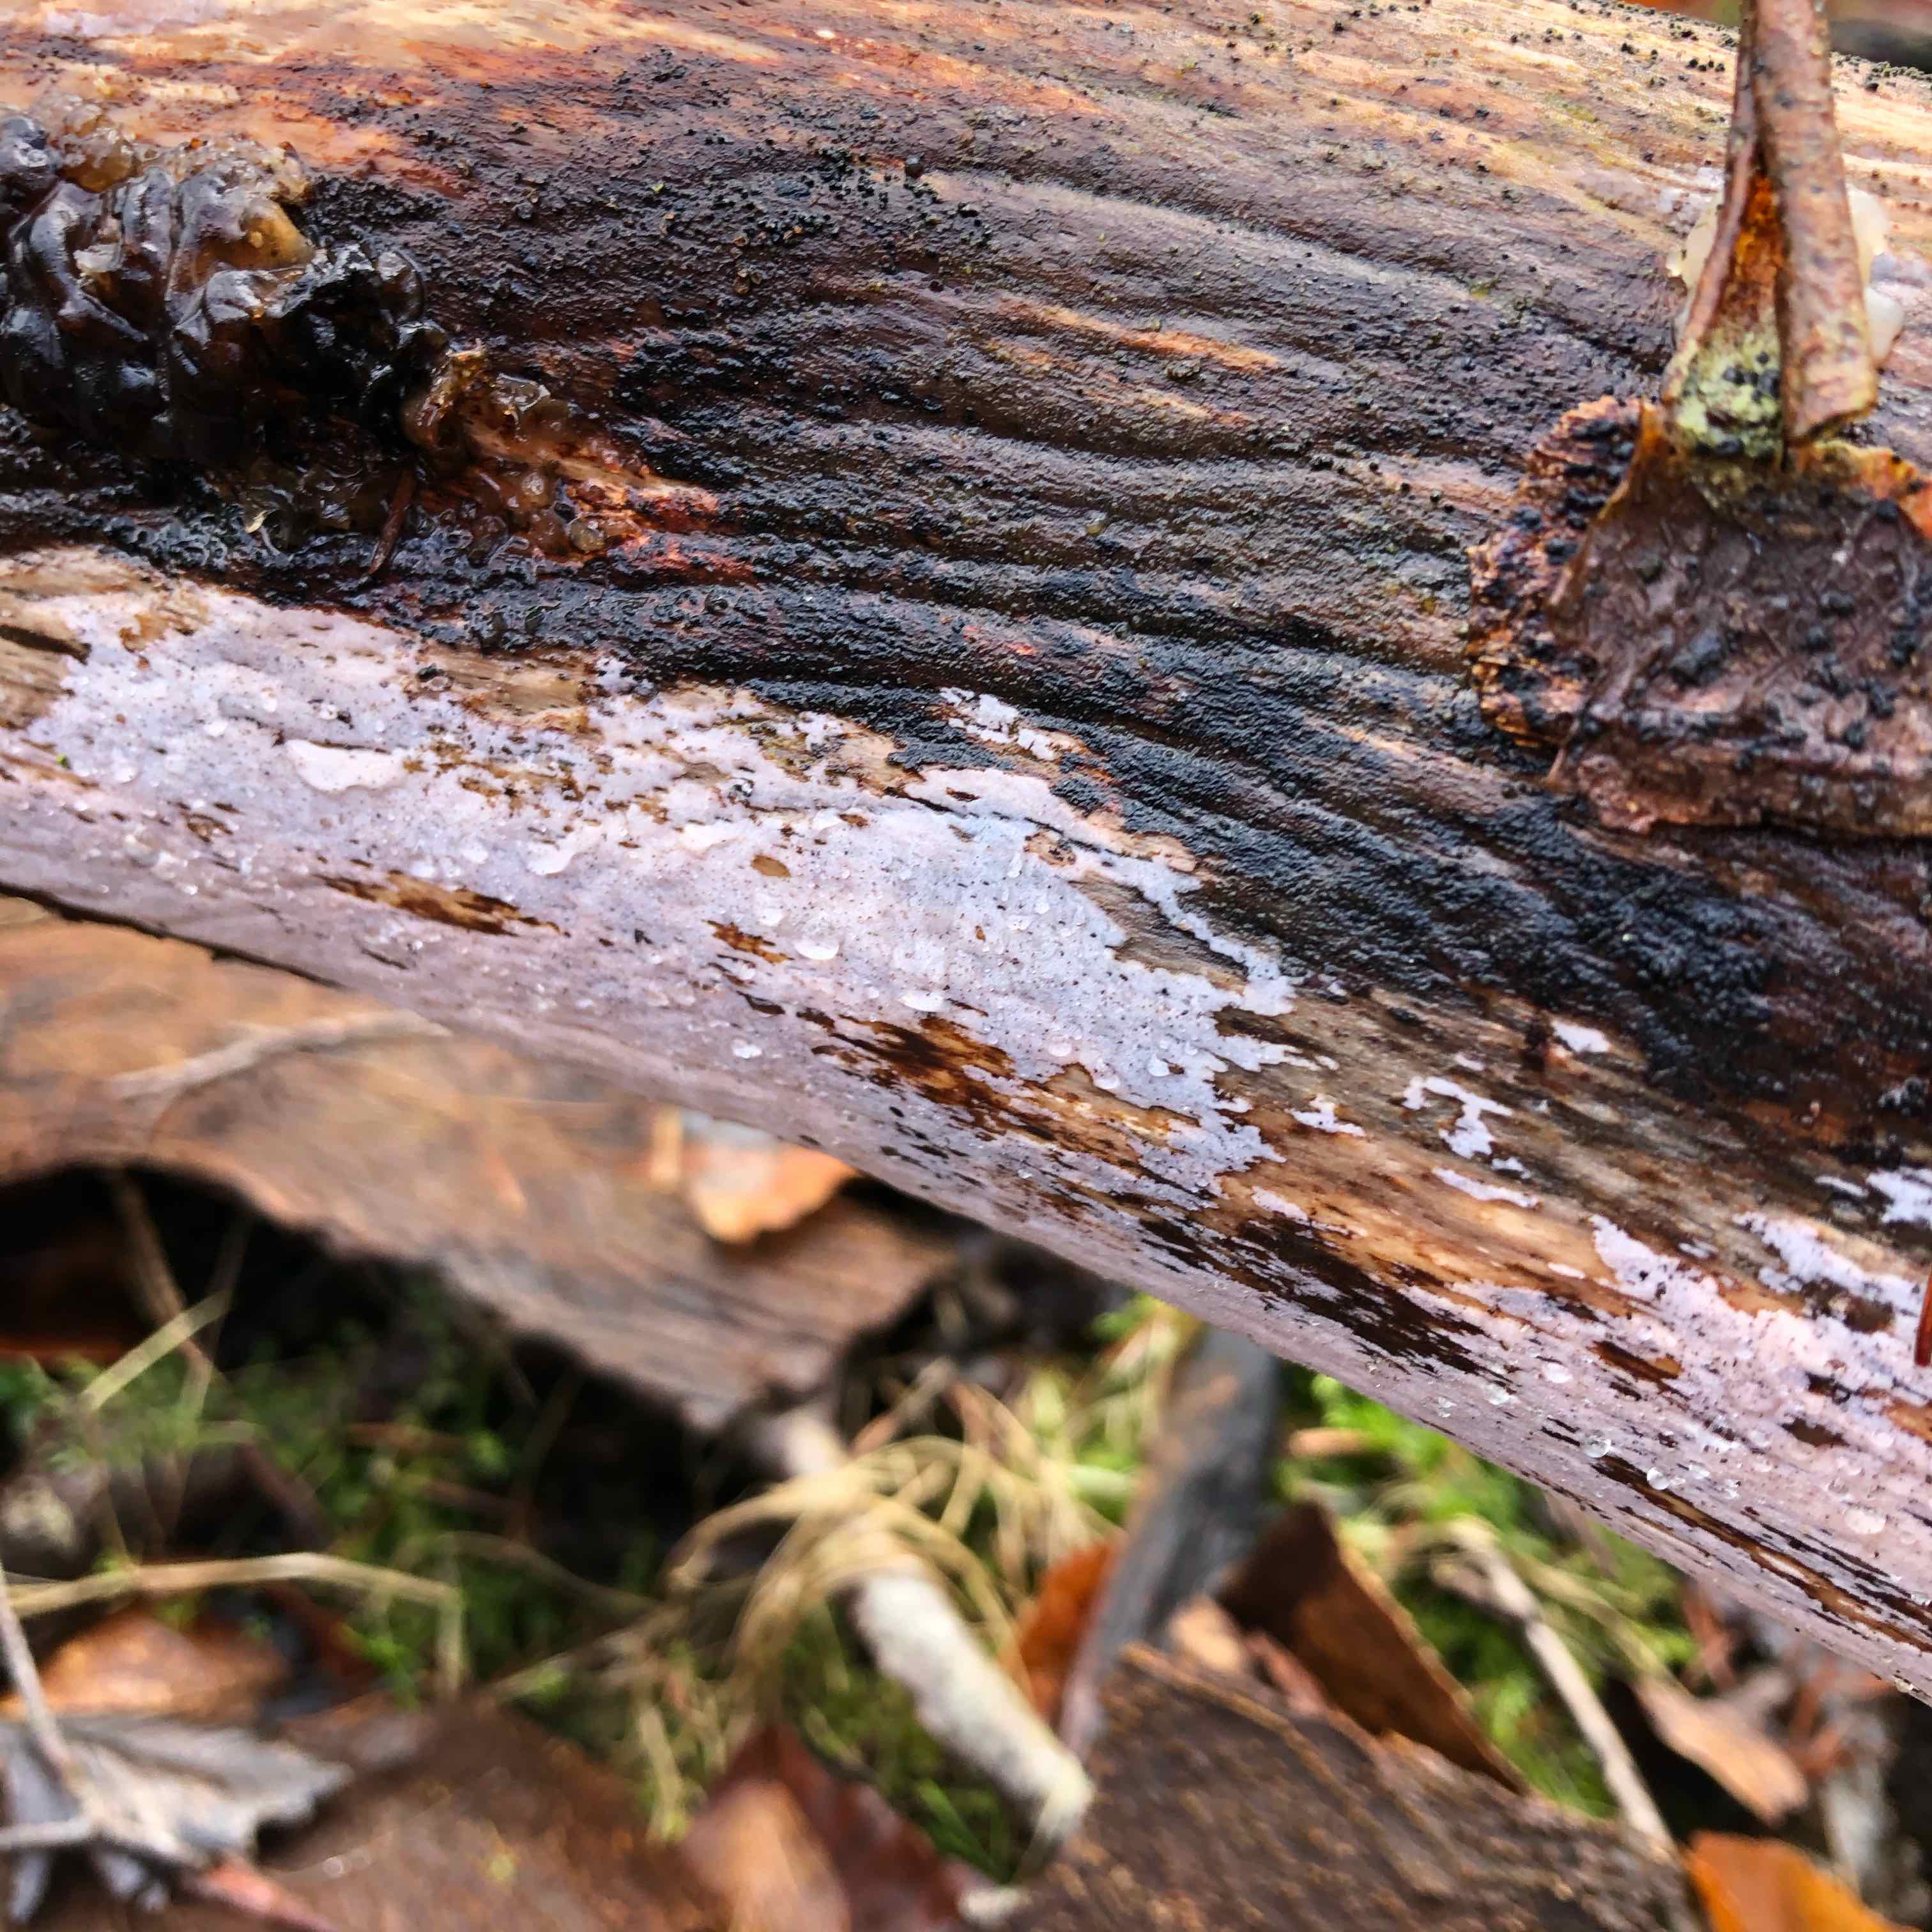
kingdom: Fungi
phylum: Basidiomycota
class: Tremellomycetes
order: Tremellales
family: Exidiaceae
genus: Exidiopsis
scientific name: Exidiopsis effusa
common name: smuk bævrehinde
